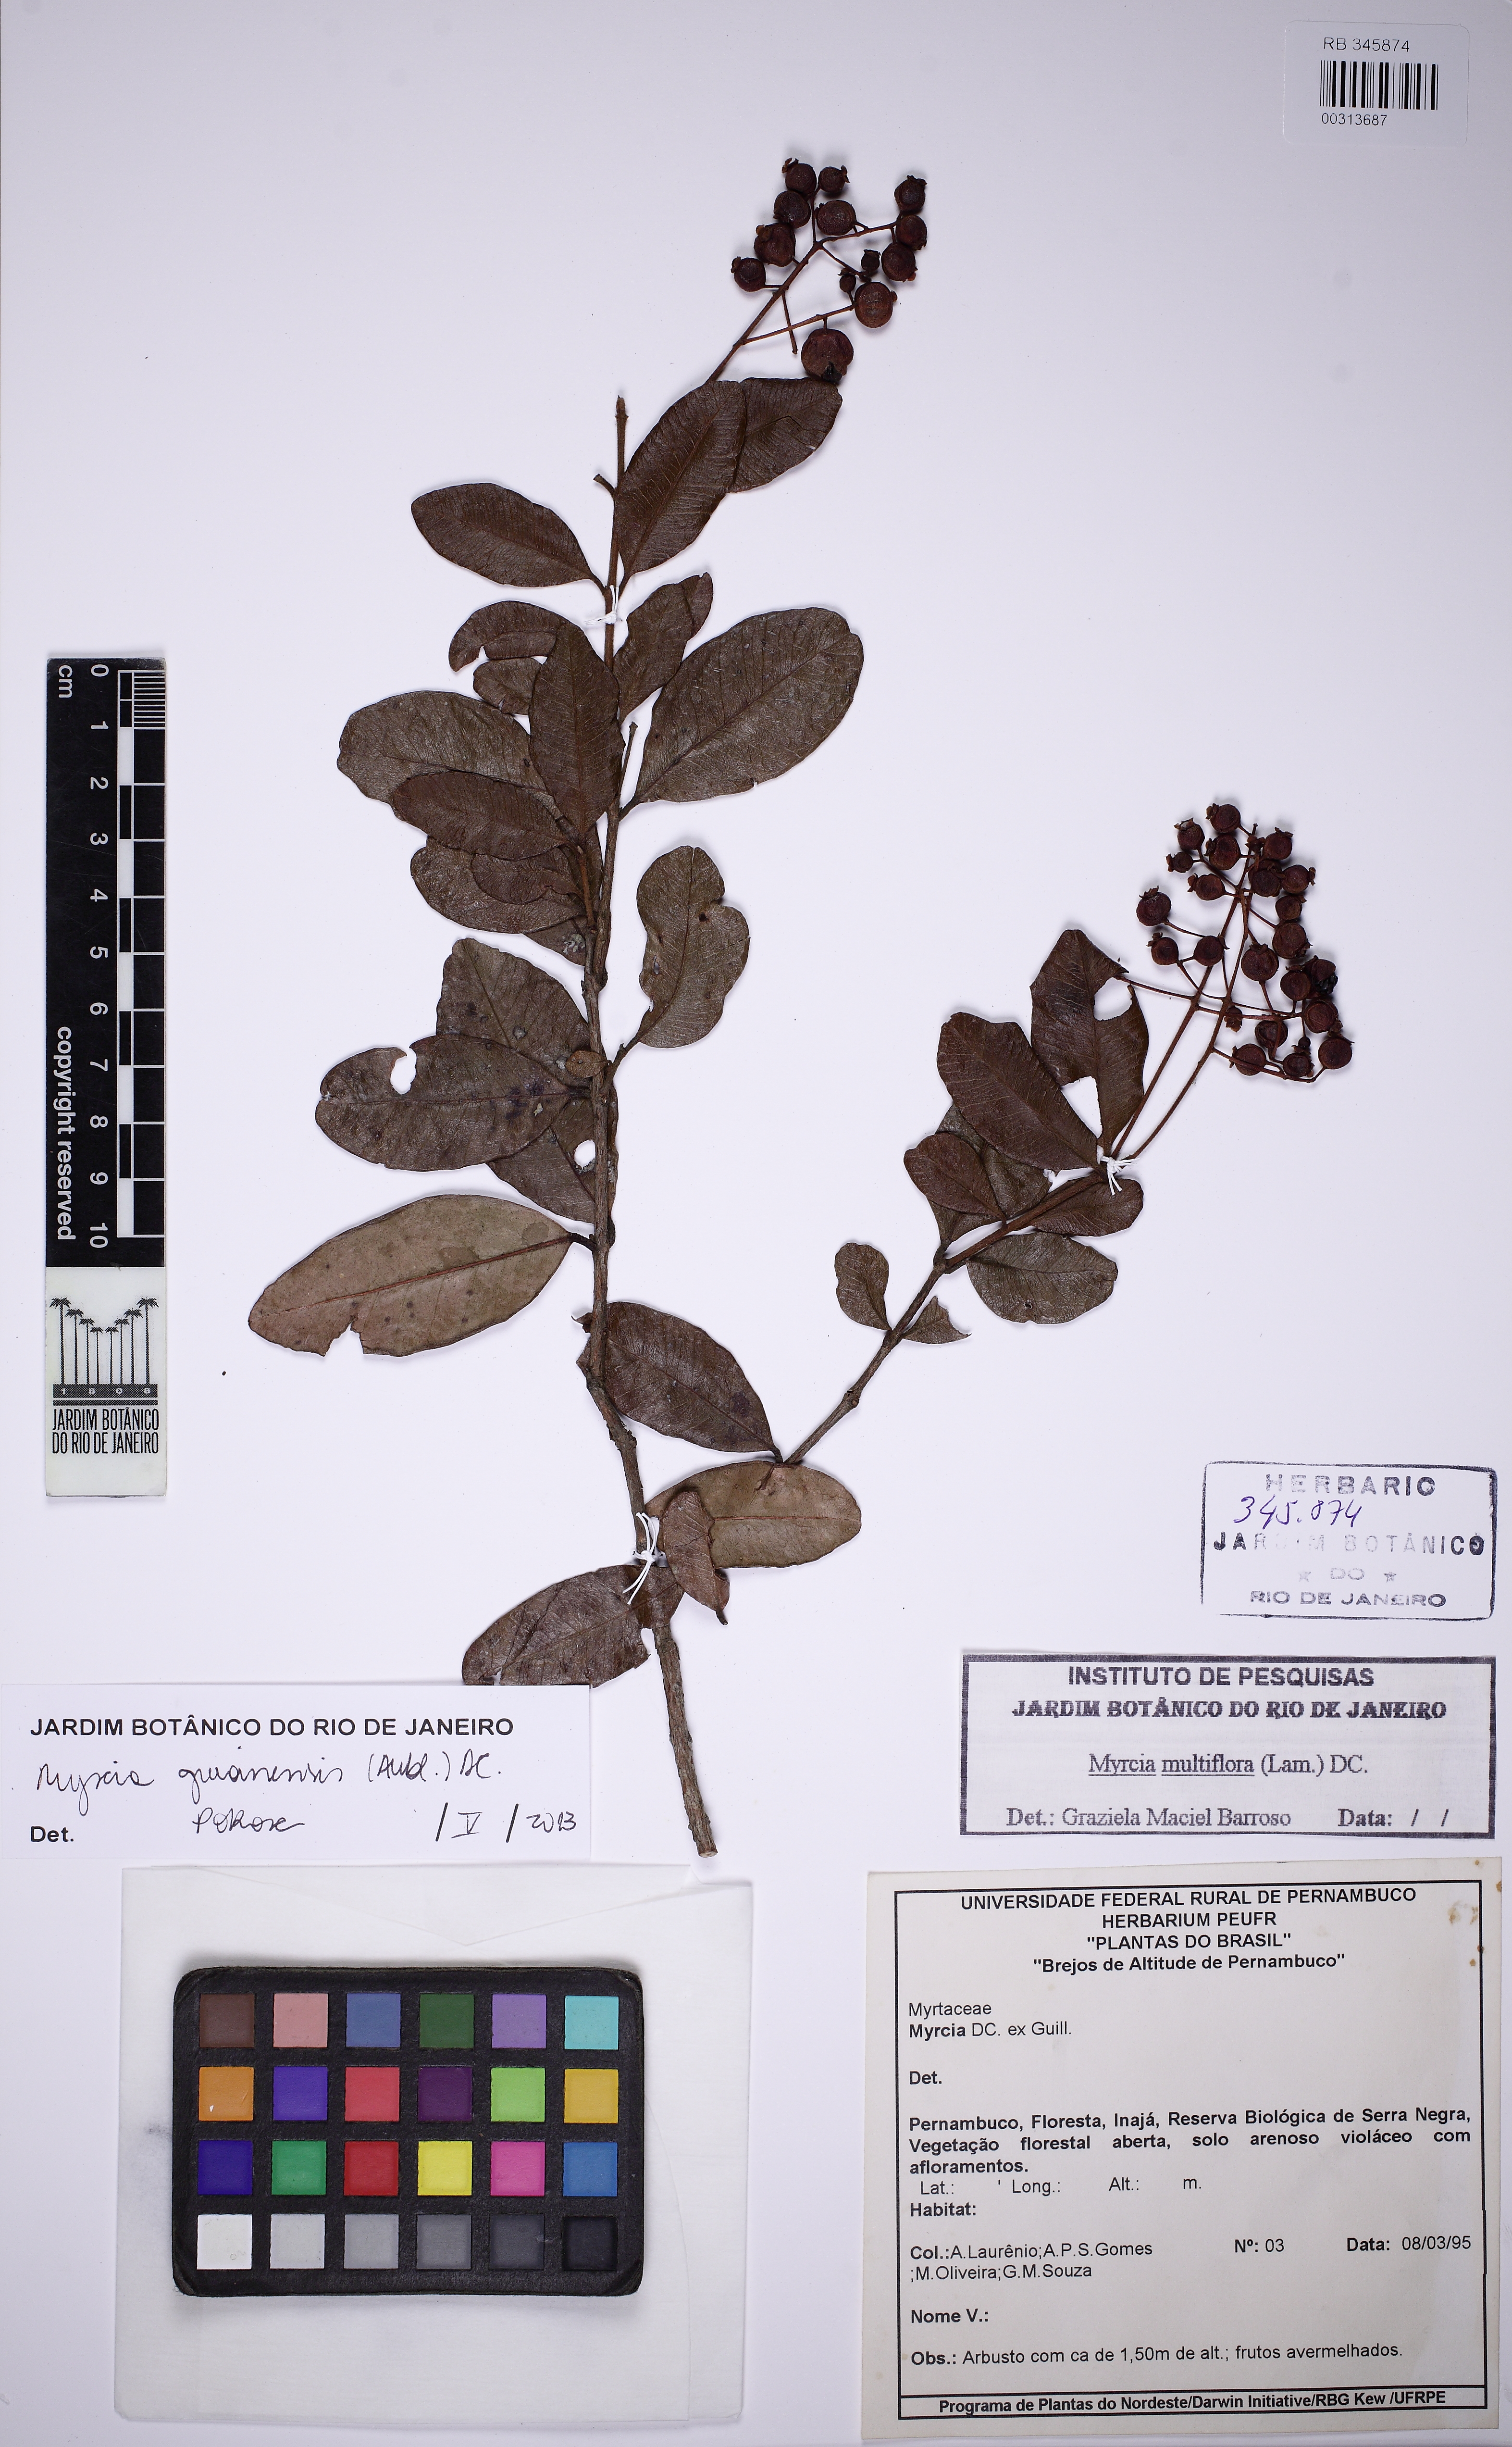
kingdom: Plantae
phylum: Tracheophyta
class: Magnoliopsida
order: Myrtales
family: Myrtaceae
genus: Myrcia
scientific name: Myrcia guianensis
